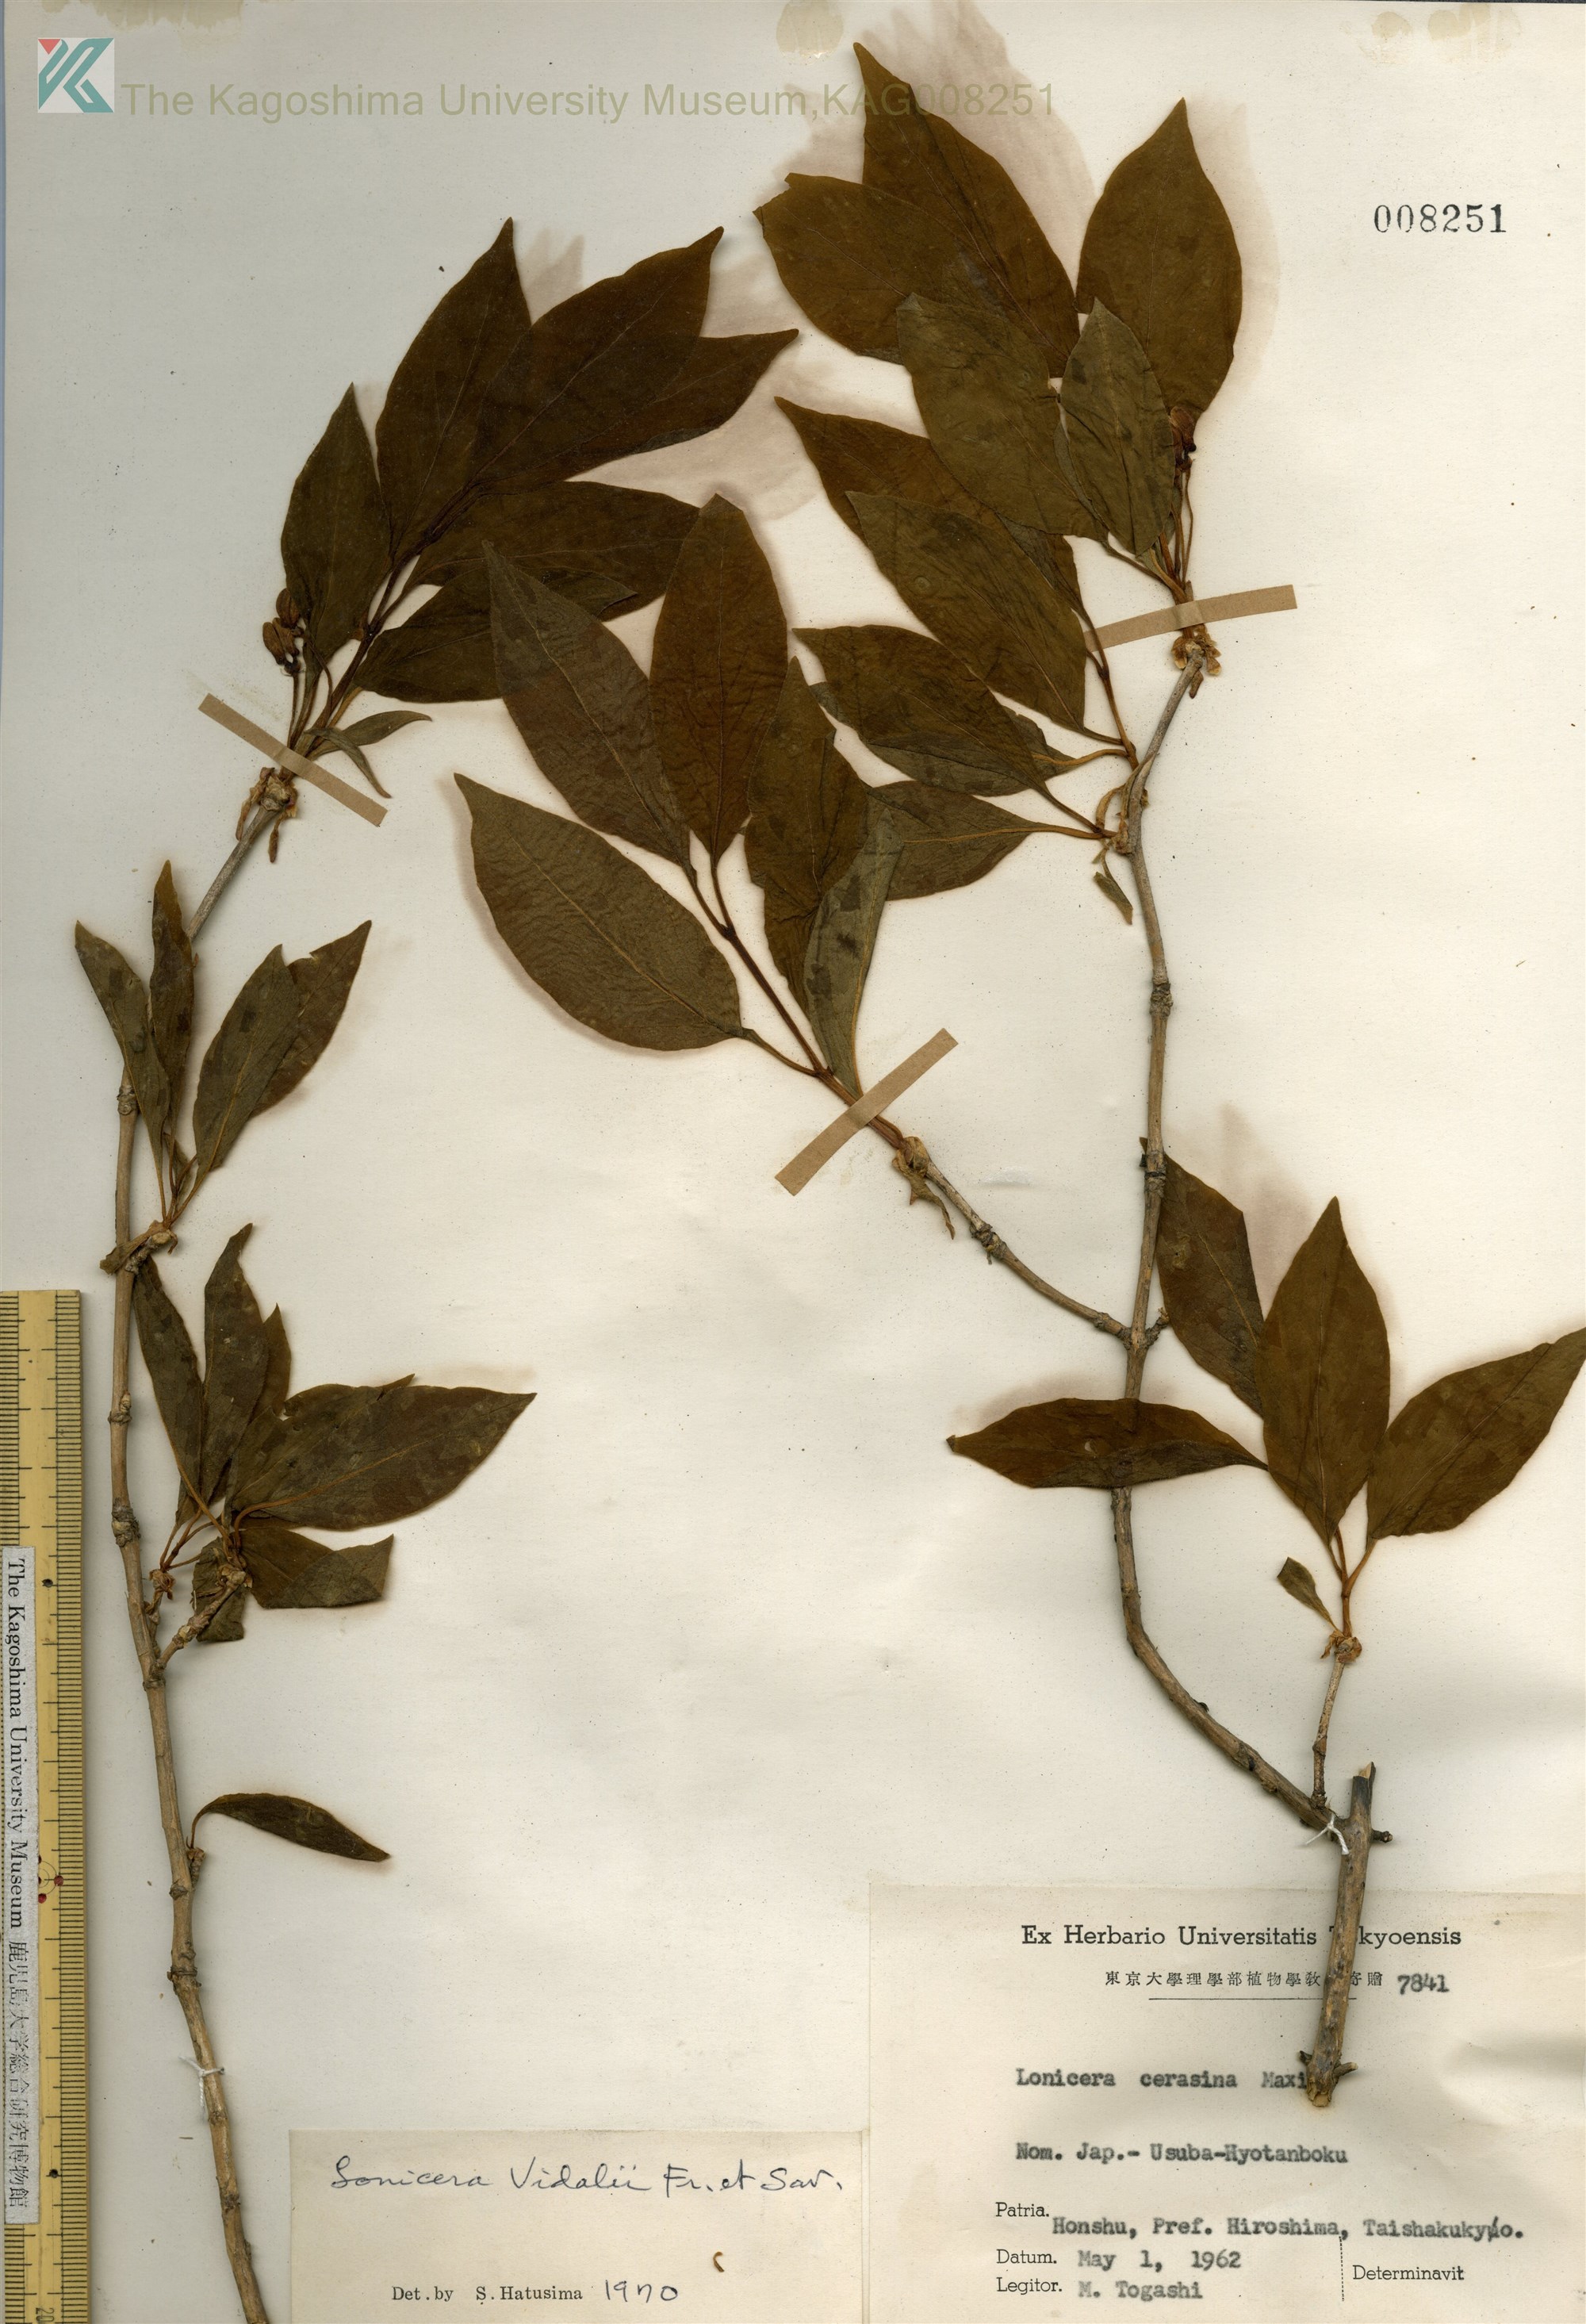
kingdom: Plantae
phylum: Tracheophyta
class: Magnoliopsida
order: Dipsacales
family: Caprifoliaceae
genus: Lonicera
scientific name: Lonicera vidalii
